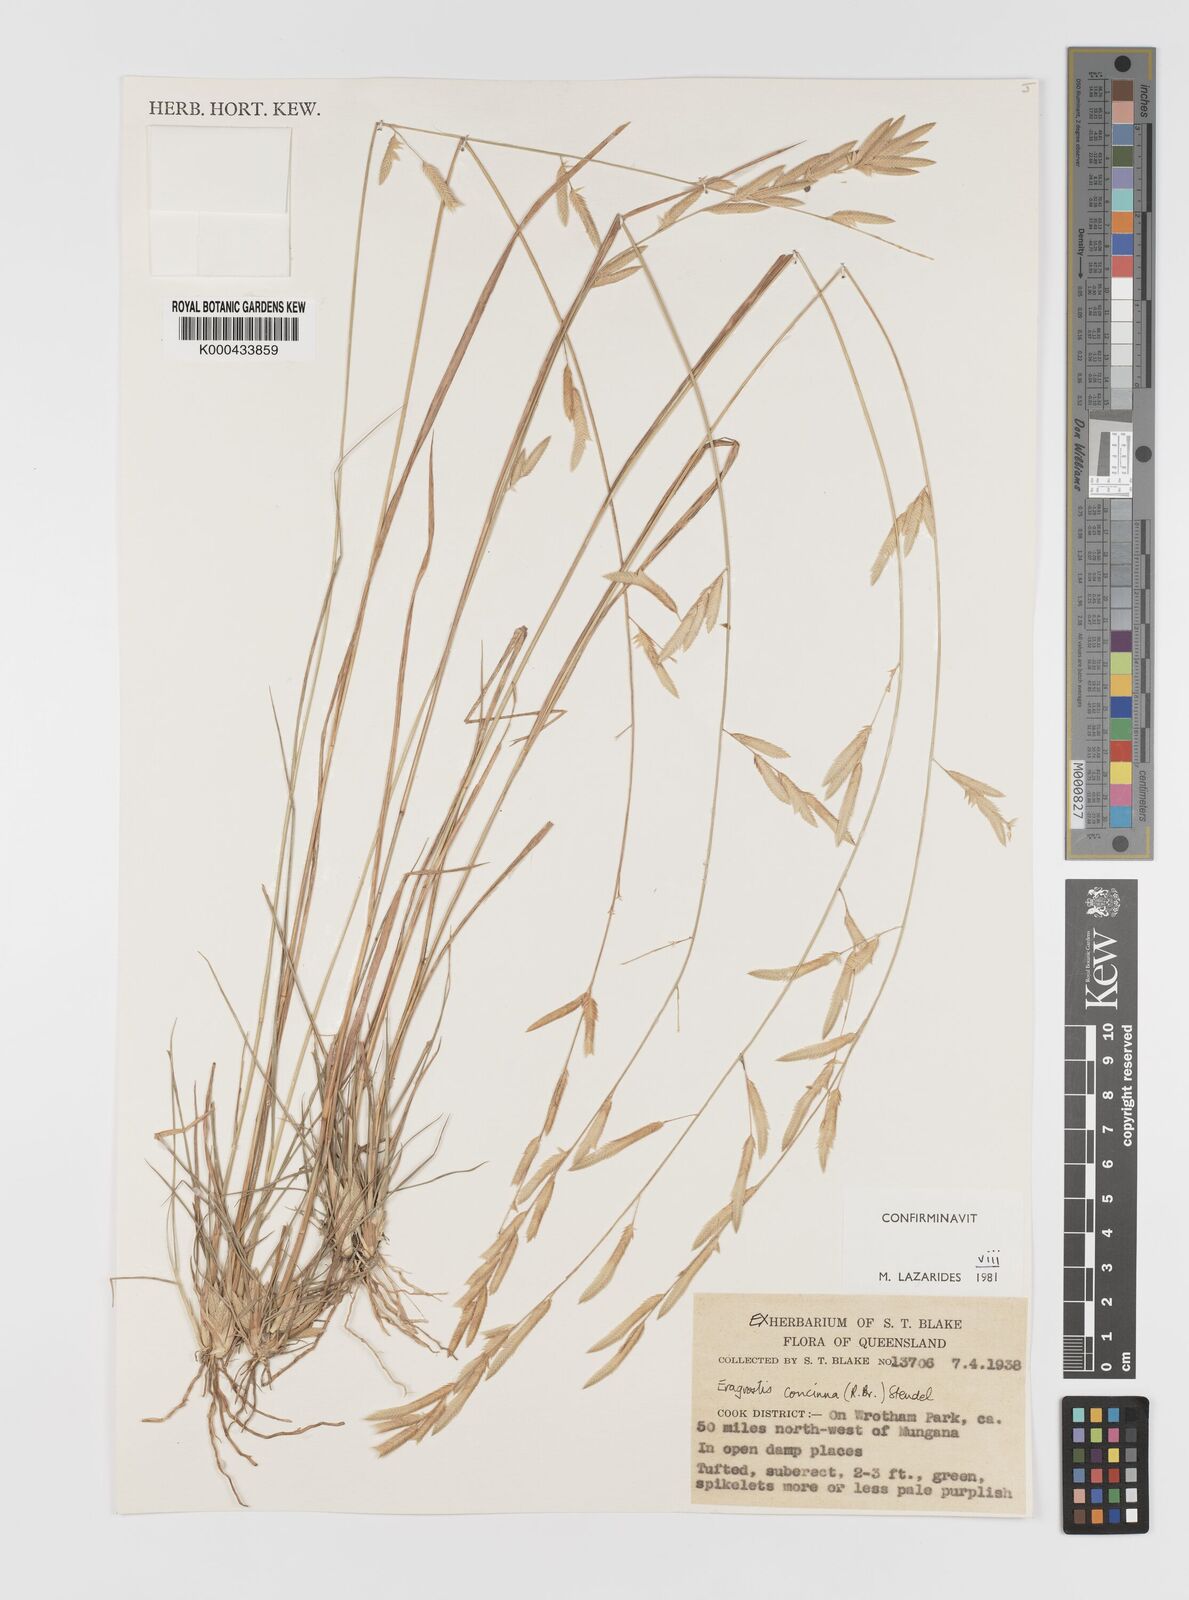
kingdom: Plantae
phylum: Tracheophyta
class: Liliopsida
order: Poales
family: Poaceae
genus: Eragrostis
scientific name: Eragrostis concinna
